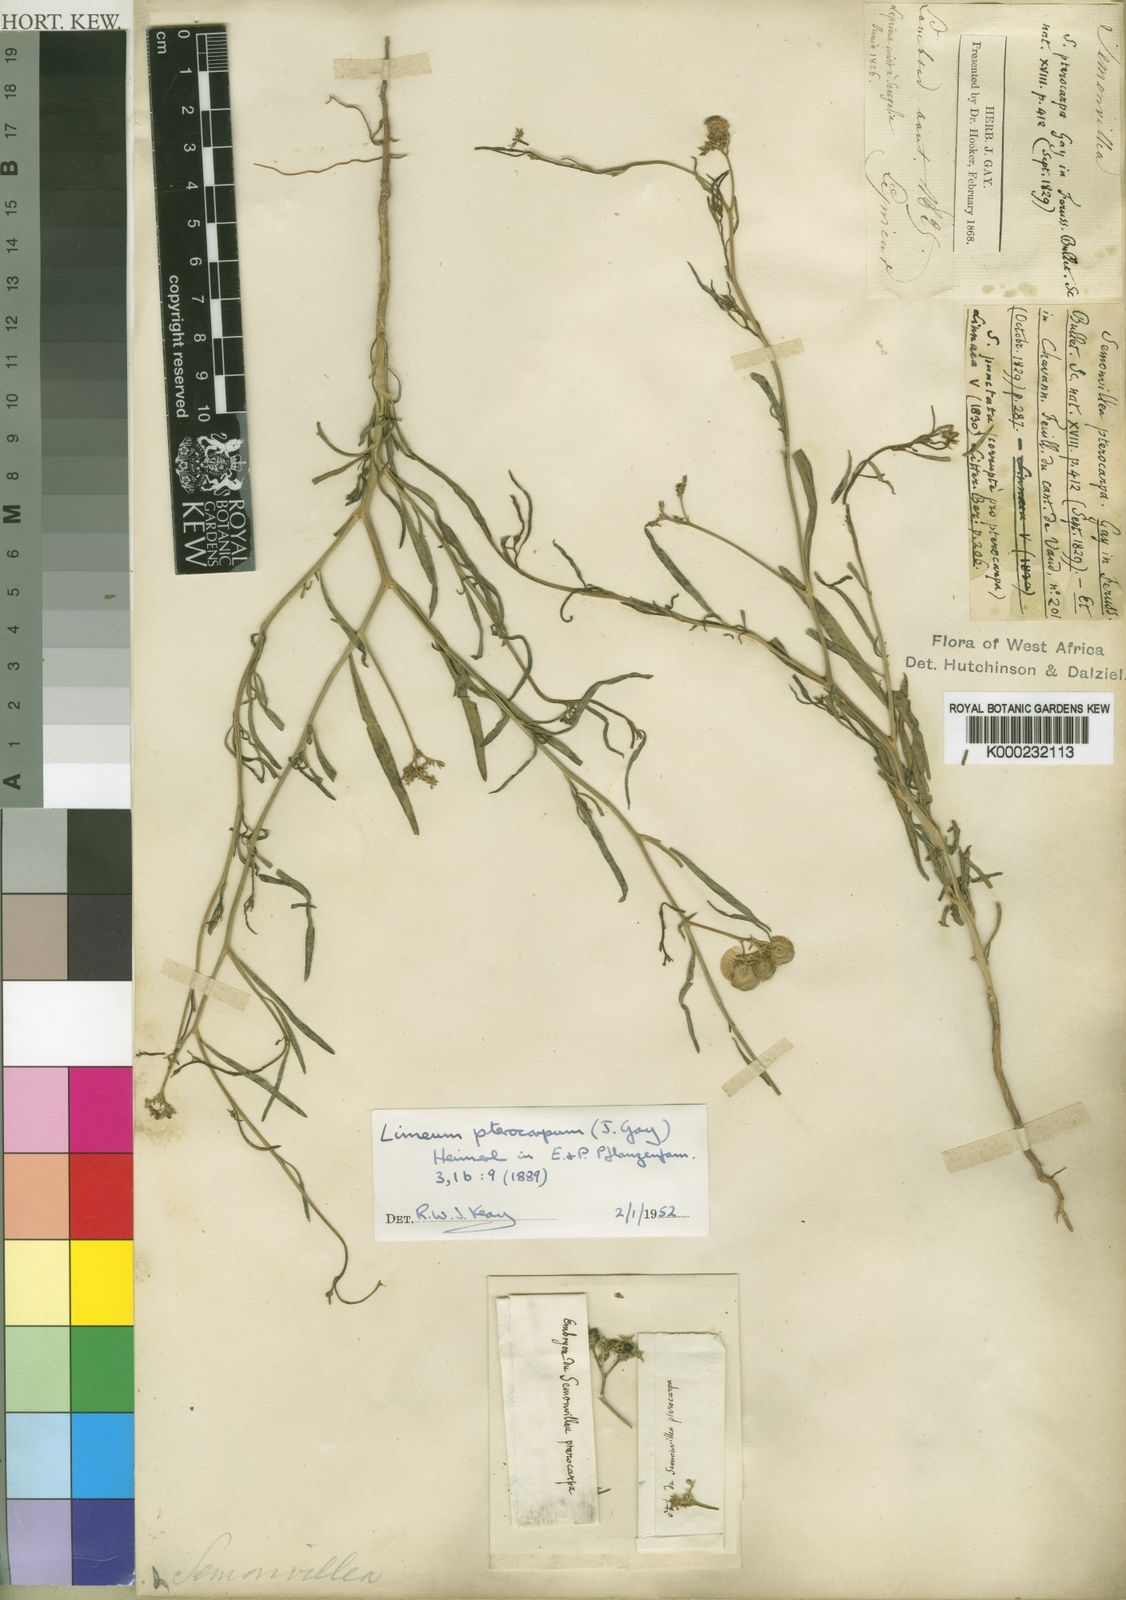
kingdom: Plantae
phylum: Tracheophyta
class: Magnoliopsida
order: Caryophyllales
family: Limeaceae
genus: Limeum
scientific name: Limeum pterocarpum
